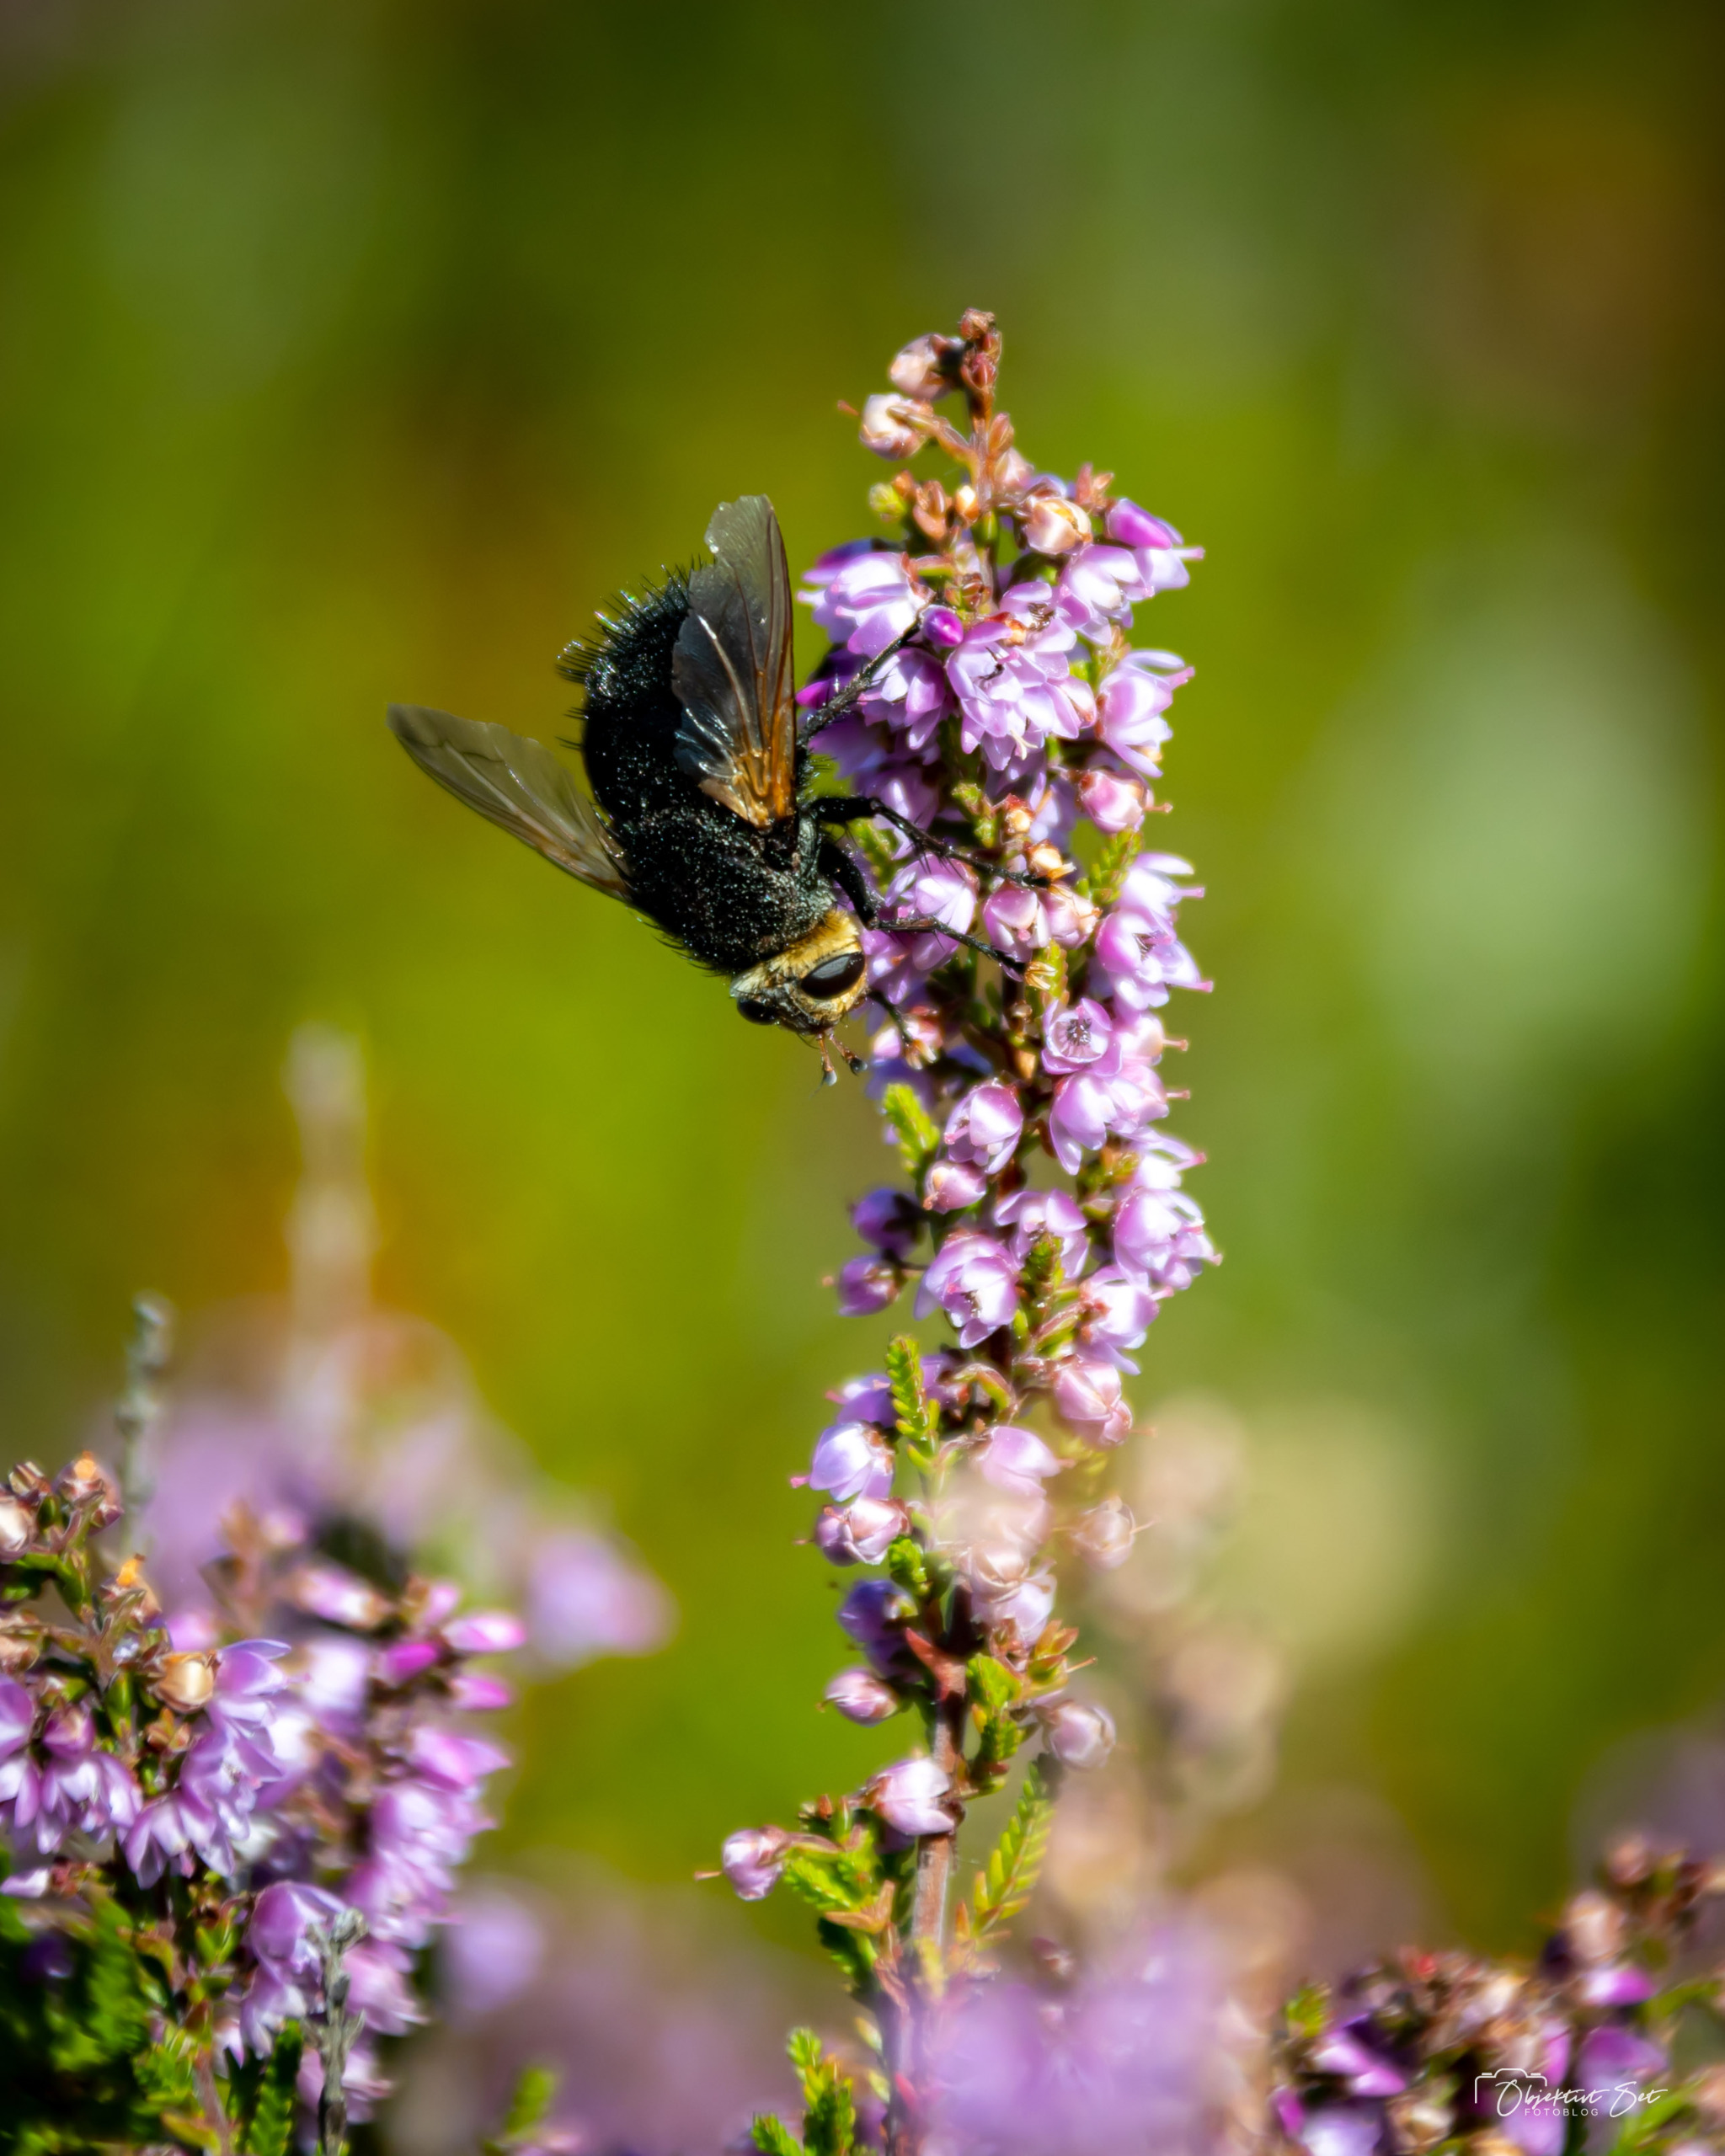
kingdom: Animalia
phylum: Arthropoda
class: Insecta
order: Diptera
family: Tachinidae
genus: Tachina
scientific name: Tachina grossa
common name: Kæmpefluen Harald
